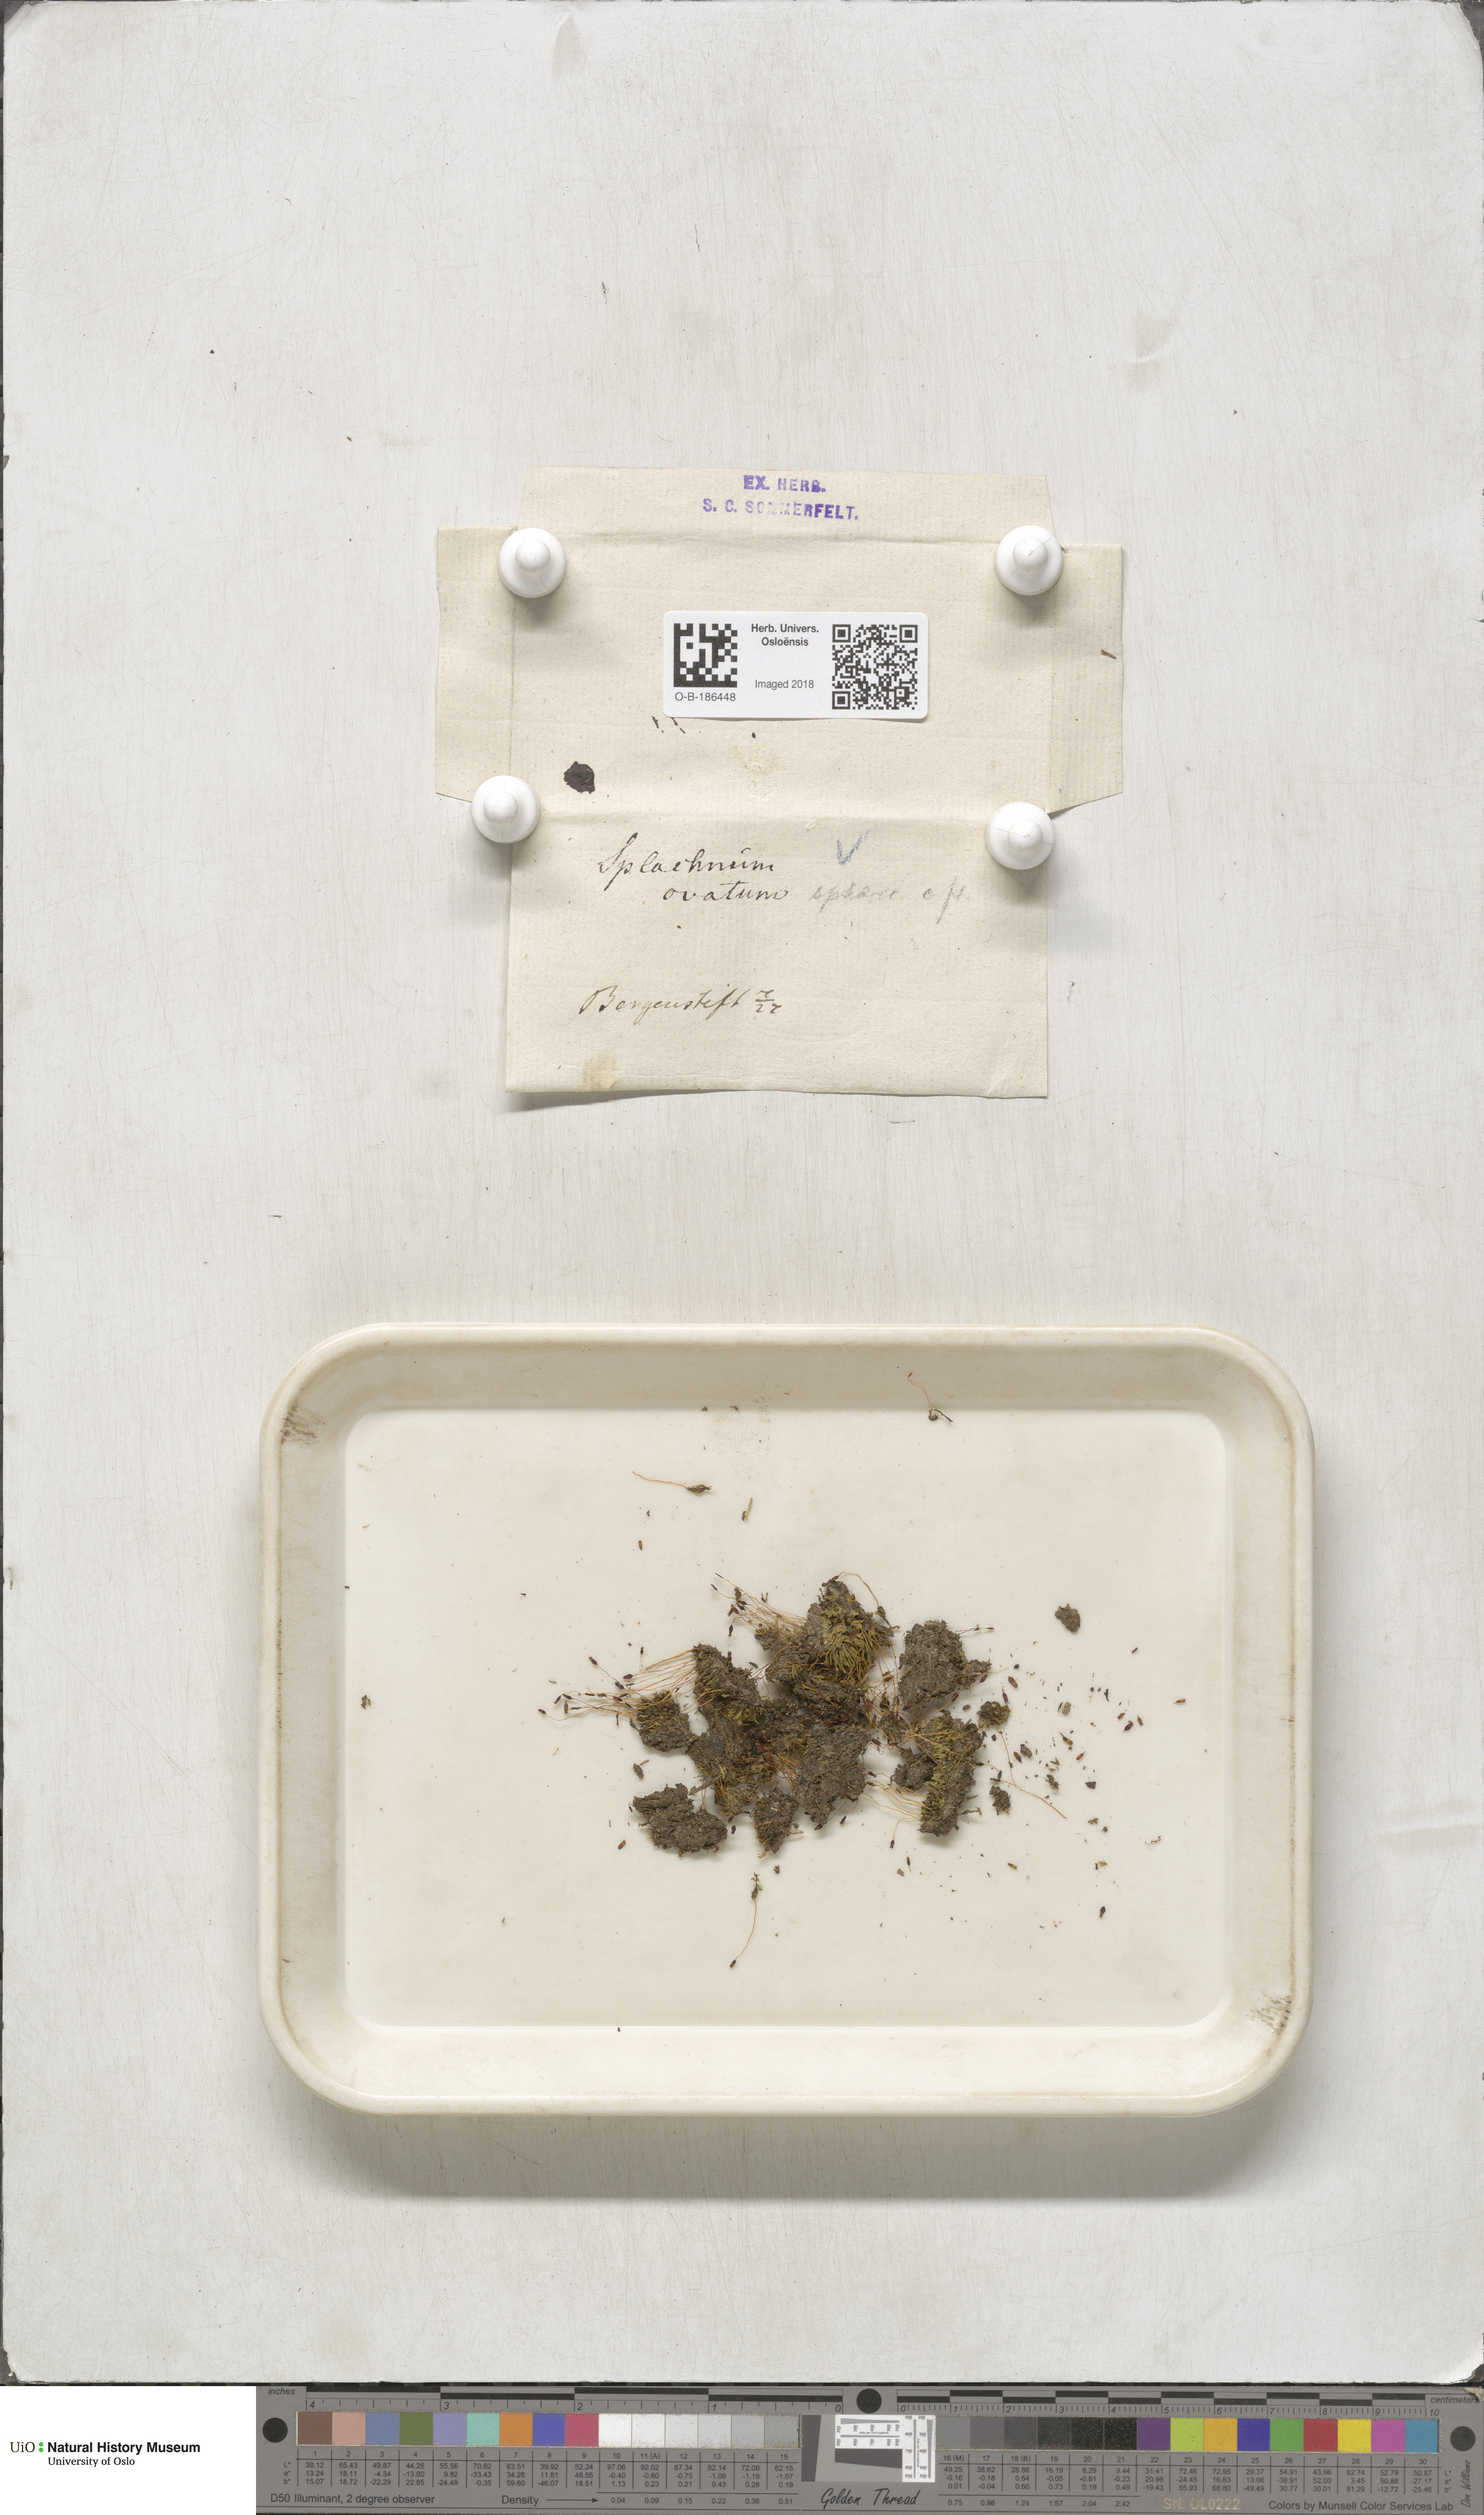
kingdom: Plantae
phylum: Bryophyta
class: Bryopsida
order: Splachnales
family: Splachnaceae
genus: Splachnum
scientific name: Splachnum sphaericum
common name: Round-fruited dung moss
